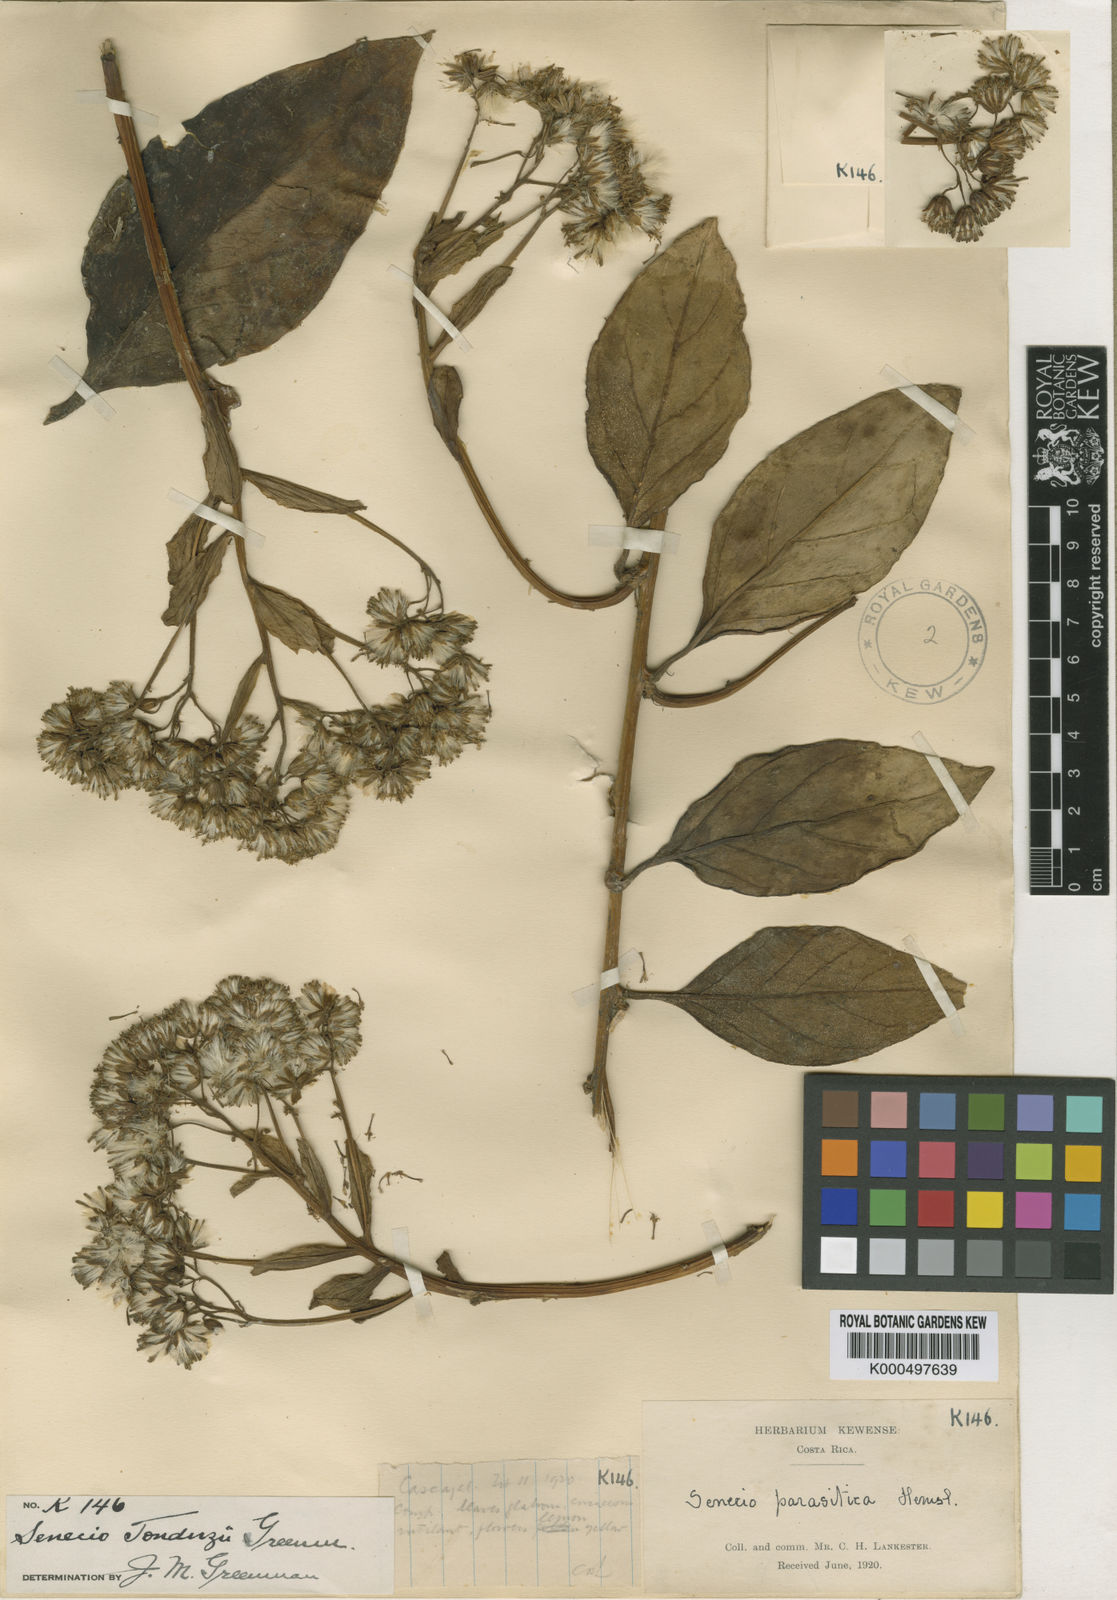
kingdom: Plantae
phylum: Tracheophyta
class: Magnoliopsida
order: Asterales
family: Asteraceae
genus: Pentacalia
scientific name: Pentacalia tonduzii
